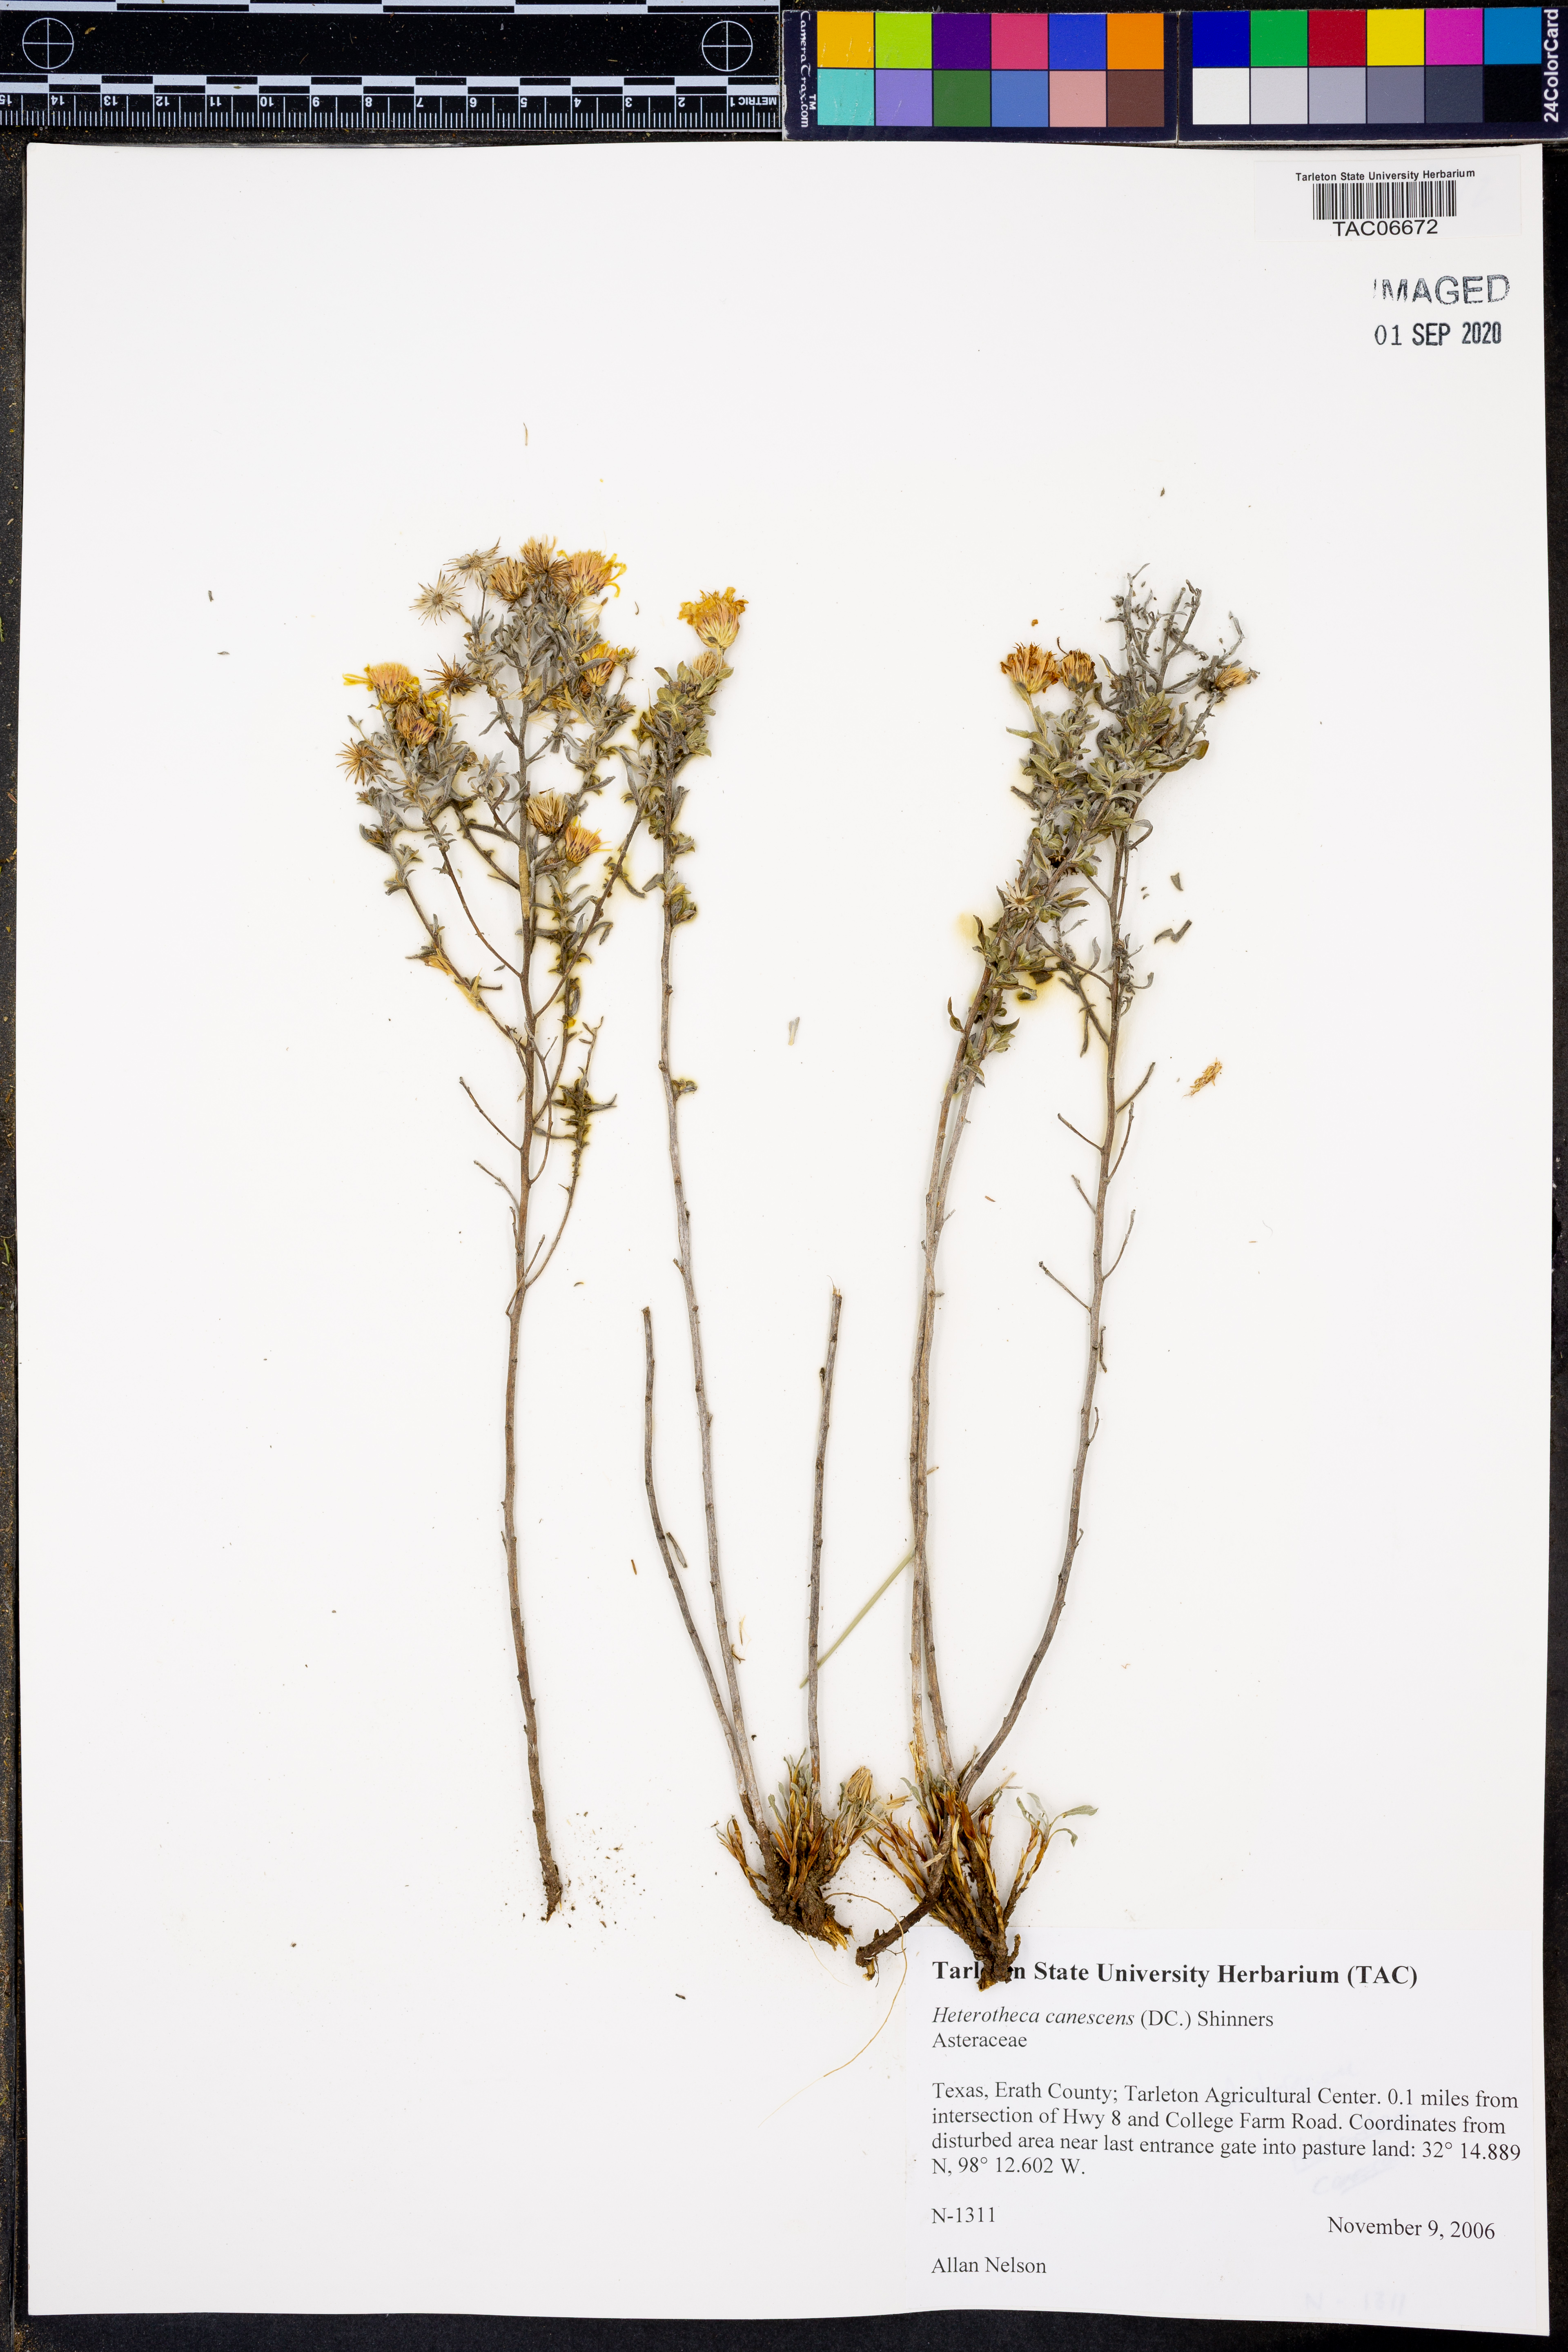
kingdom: Plantae
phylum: Tracheophyta
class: Magnoliopsida
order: Asterales
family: Asteraceae
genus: Heterotheca
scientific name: Heterotheca canescens
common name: Hoary golden-aster
